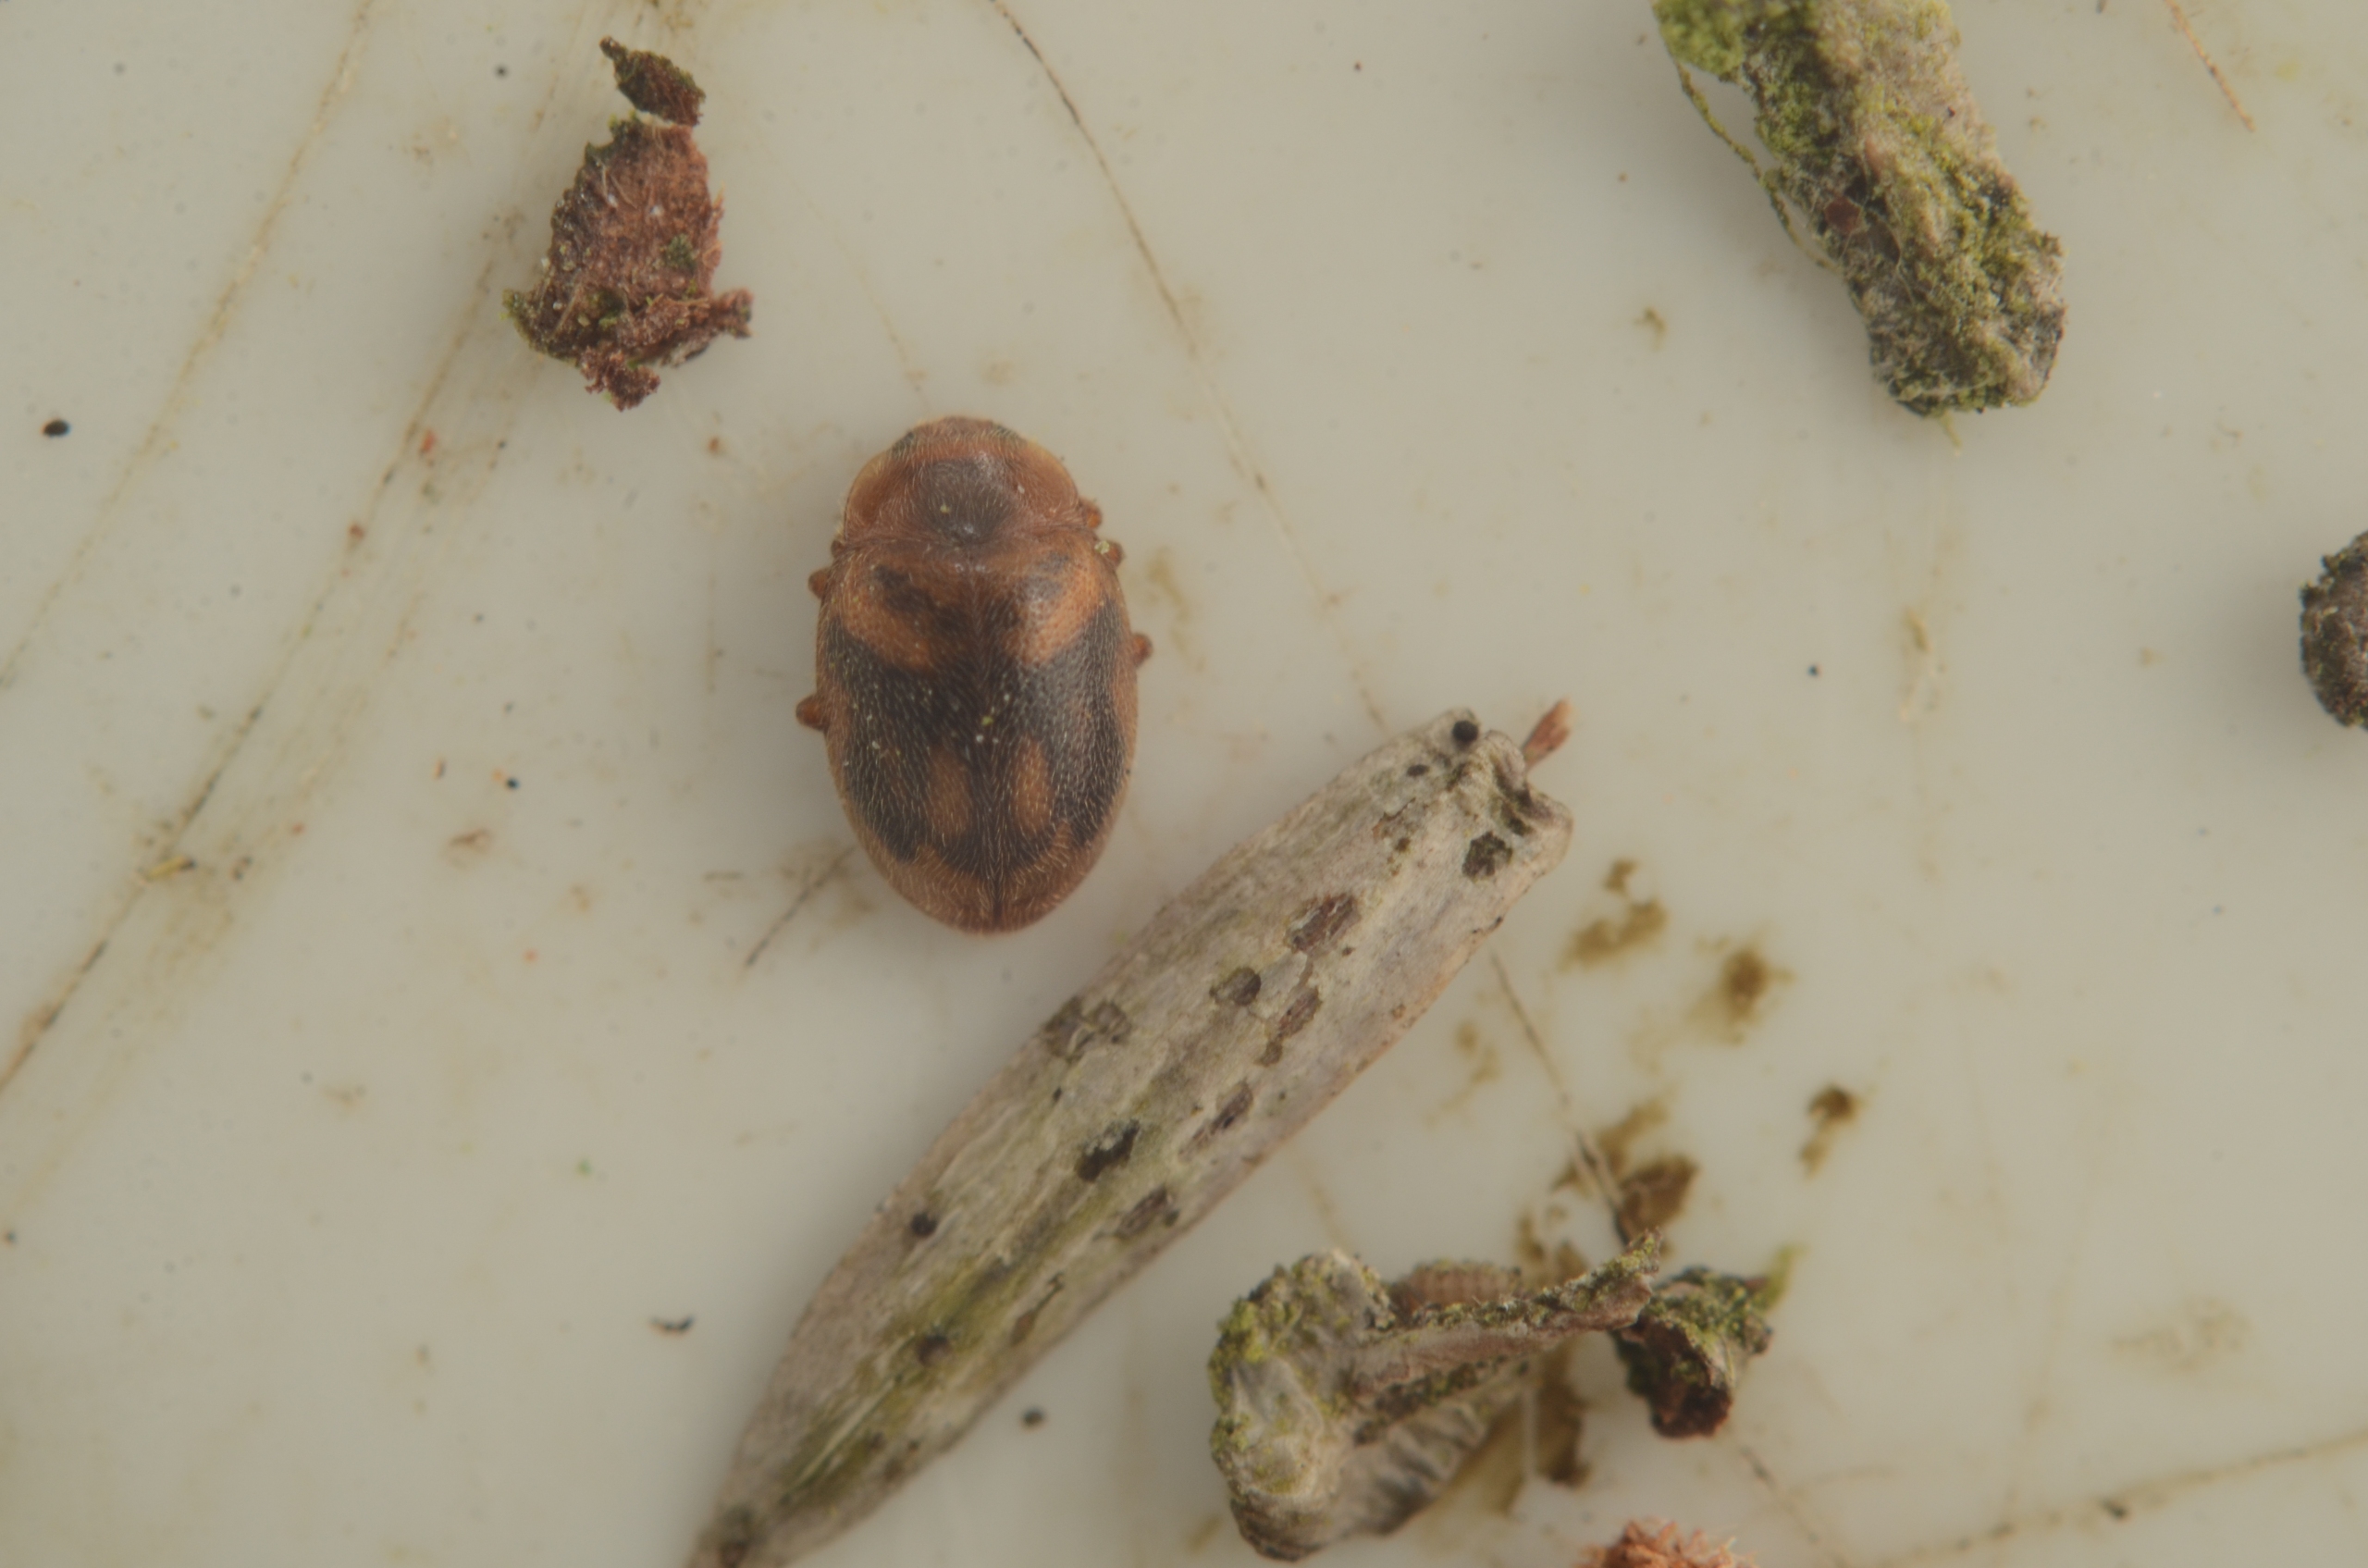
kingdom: Animalia
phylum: Arthropoda
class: Insecta
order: Coleoptera
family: Coccinellidae
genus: Rhyzobius
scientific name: Rhyzobius chrysomeloides
